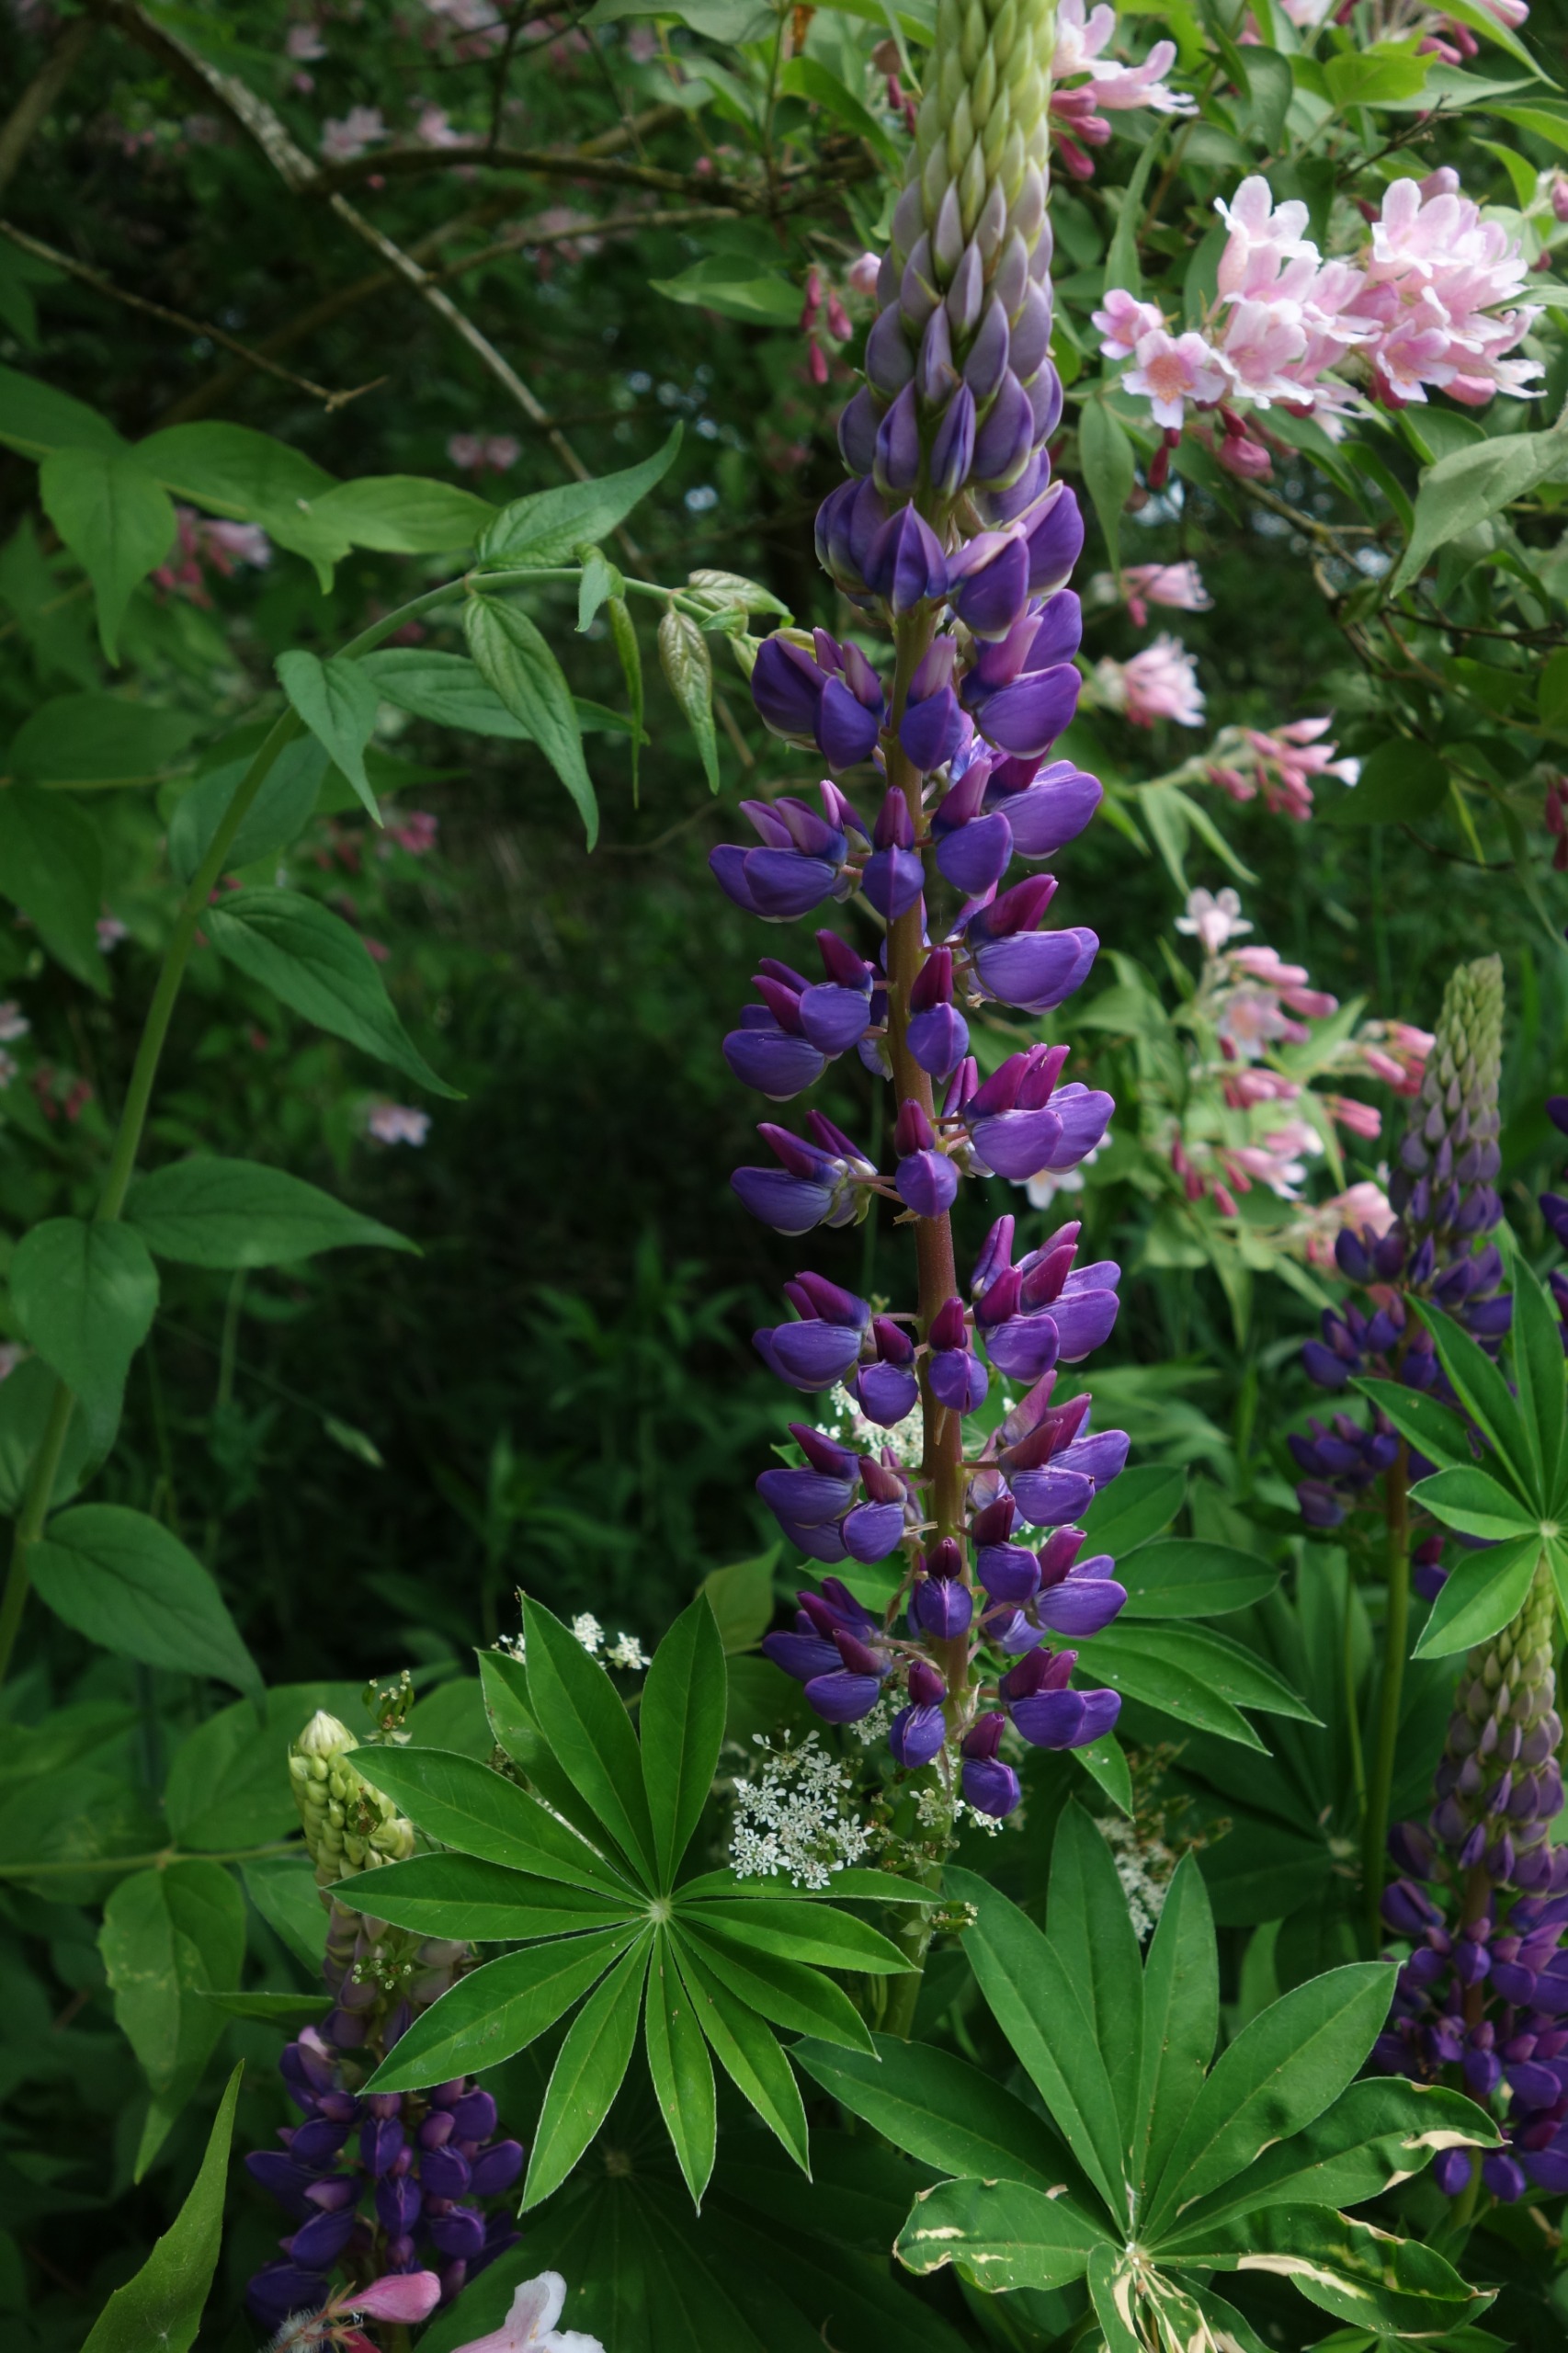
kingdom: Plantae
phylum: Tracheophyta
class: Magnoliopsida
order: Fabales
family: Fabaceae
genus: Lupinus
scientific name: Lupinus polyphyllus
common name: Mangebladet lupin
